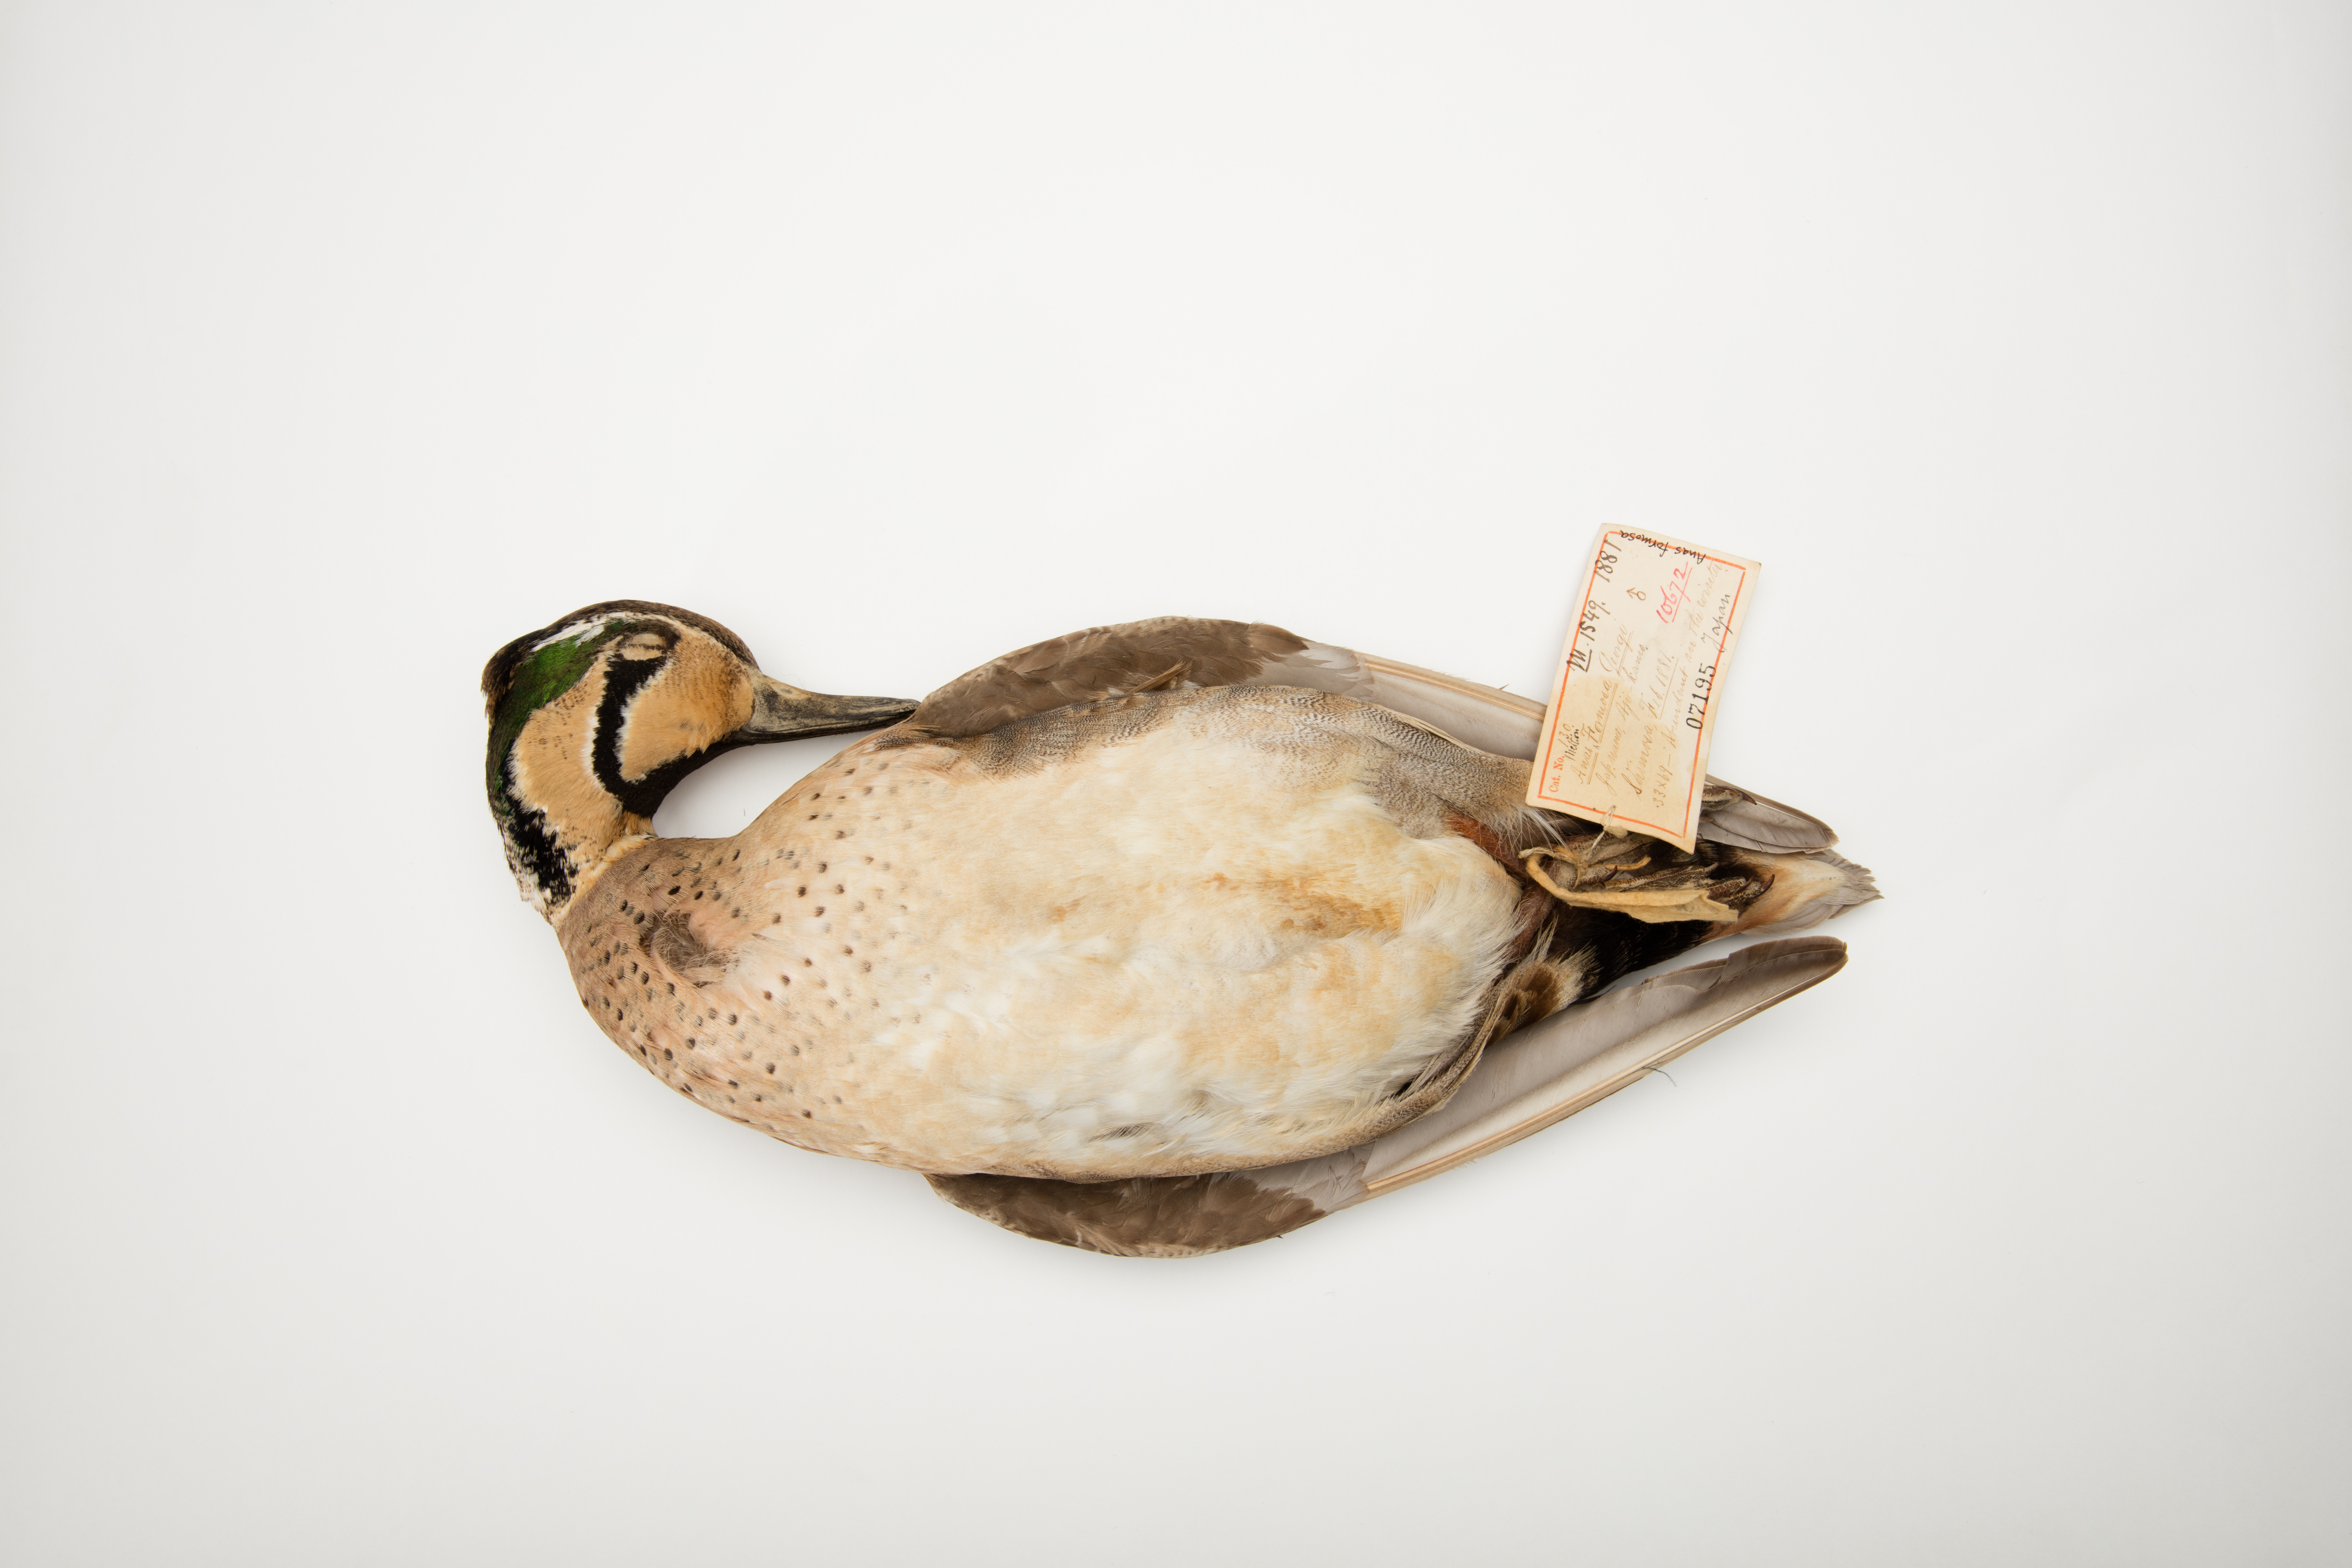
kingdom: Animalia
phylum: Chordata
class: Aves
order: Anseriformes
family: Anatidae
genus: Sibirionetta
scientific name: Sibirionetta formosa
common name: Baikal teal
